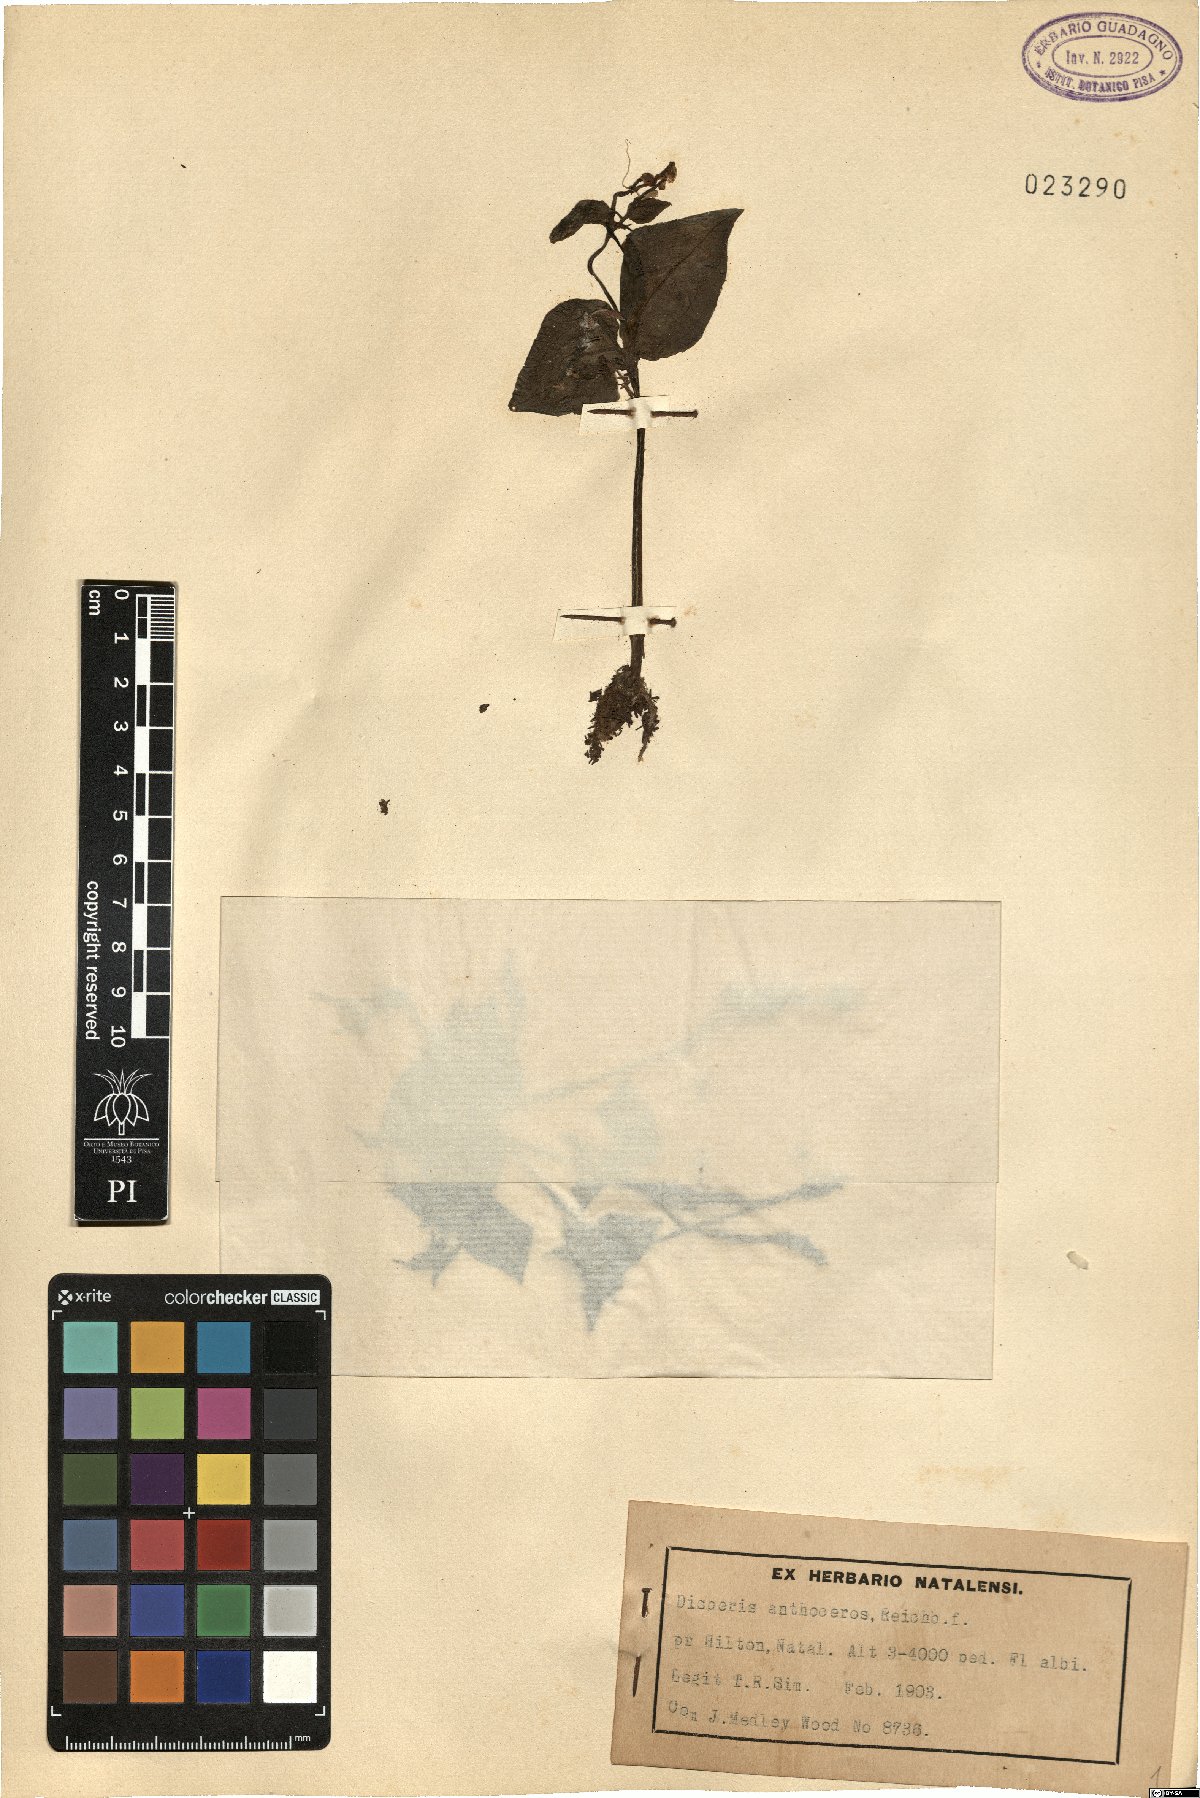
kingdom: Plantae
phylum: Tracheophyta
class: Liliopsida
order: Asparagales
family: Orchidaceae
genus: Disperis
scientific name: Disperis anthoceros
